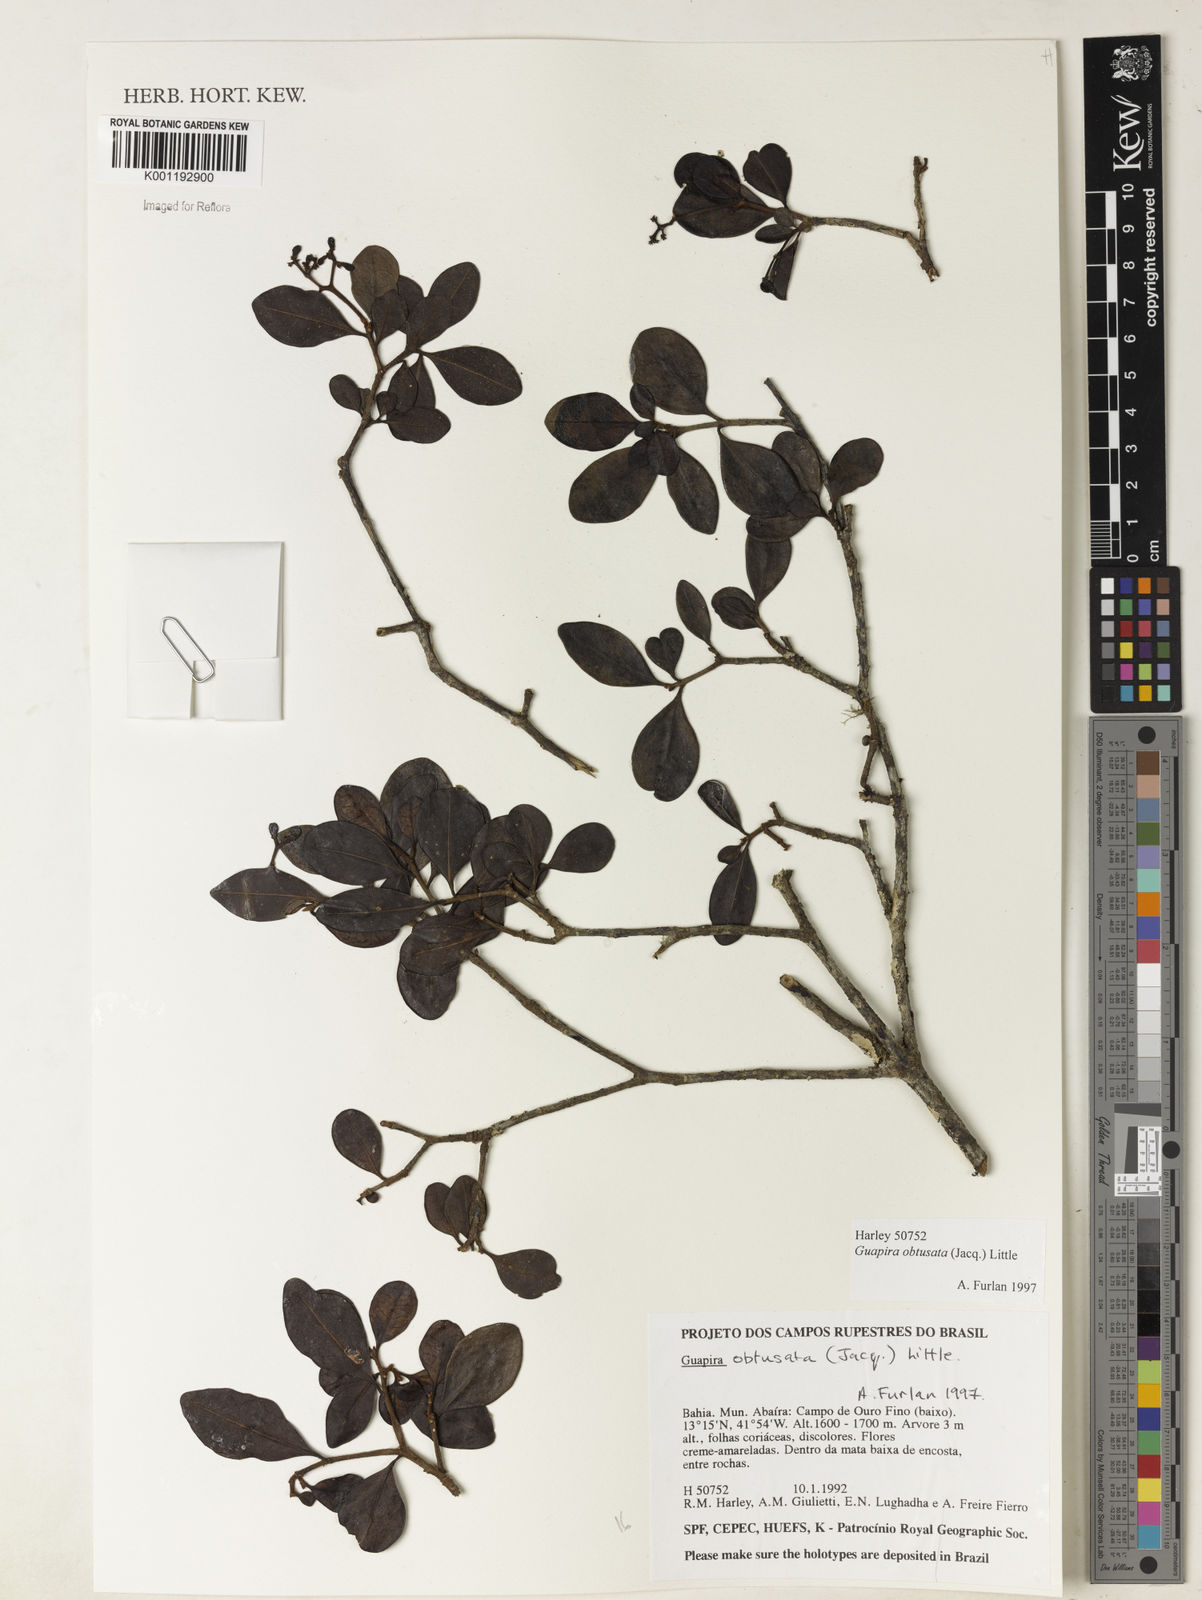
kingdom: Plantae
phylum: Tracheophyta
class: Magnoliopsida
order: Caryophyllales
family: Nyctaginaceae
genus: Guapira
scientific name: Guapira obtusata
